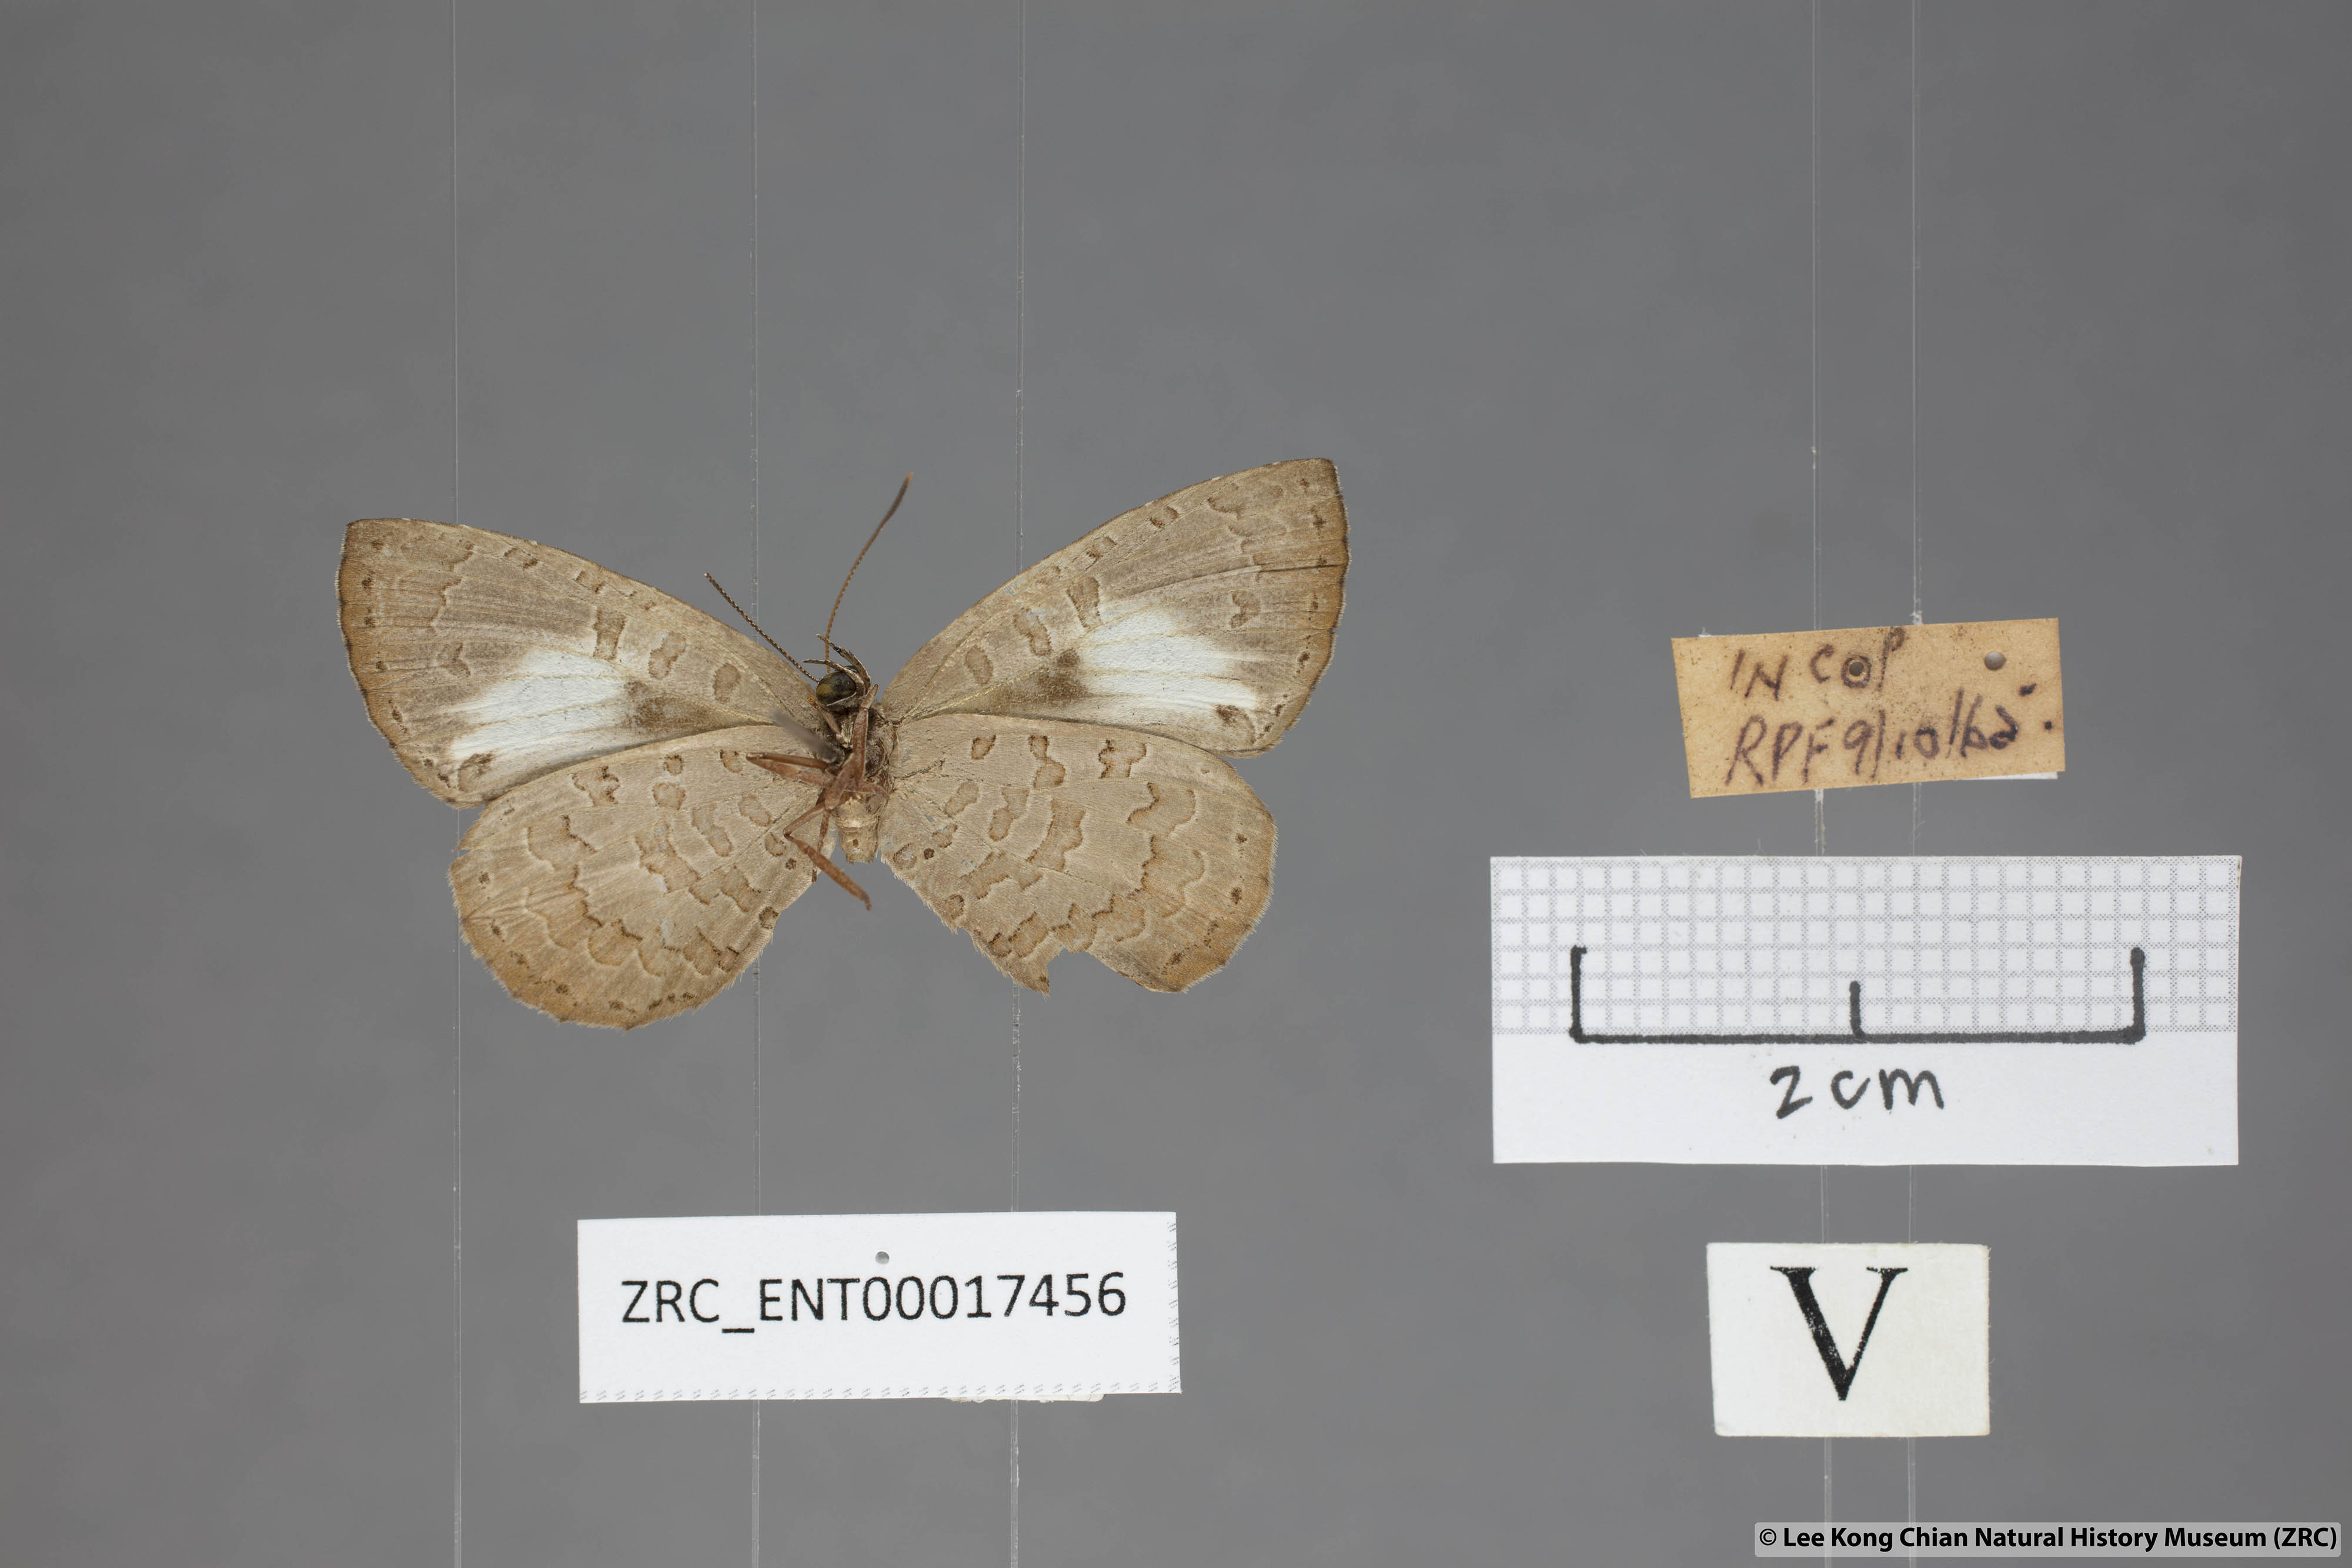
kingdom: Animalia
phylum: Arthropoda
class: Insecta
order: Lepidoptera
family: Lycaenidae
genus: Miletus
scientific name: Miletus gopara
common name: Round-banded brownie
